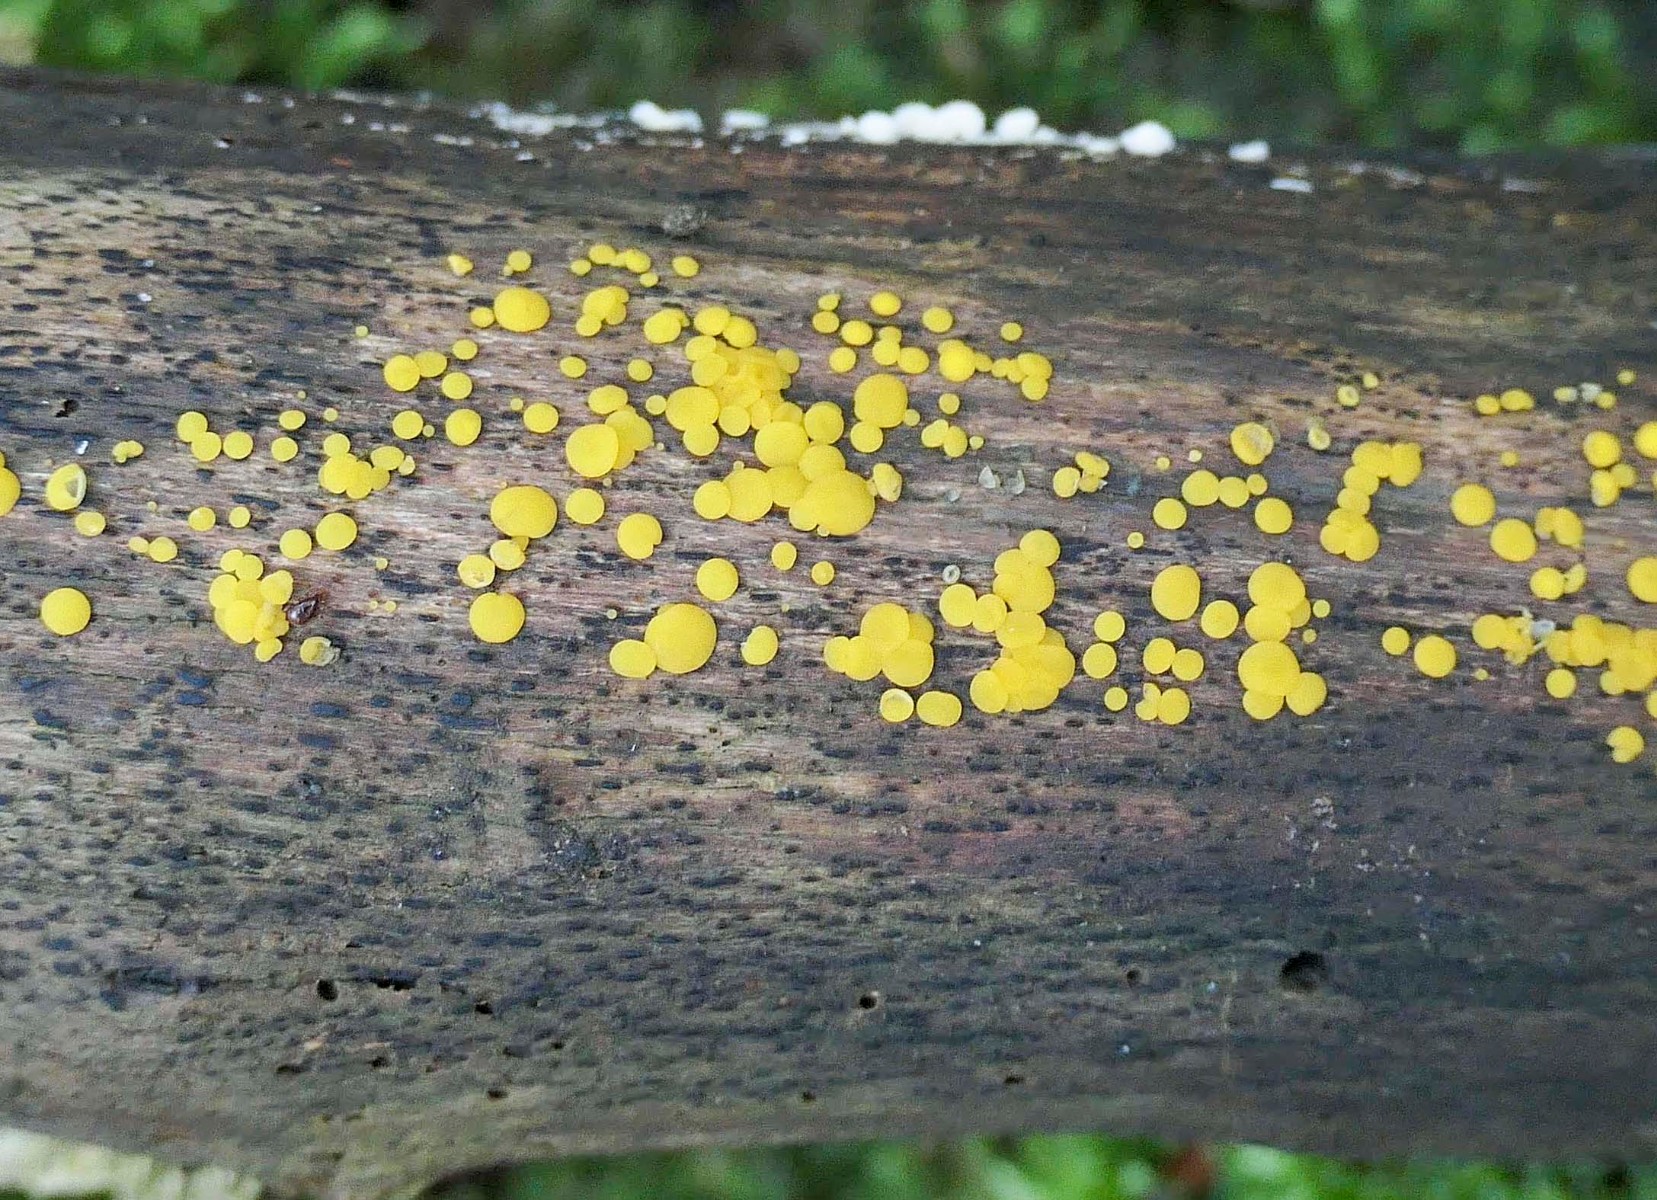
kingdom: Fungi
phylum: Ascomycota
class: Leotiomycetes
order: Helotiales
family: Pezizellaceae
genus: Calycina
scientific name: Calycina citrina
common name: almindelig gulskive
